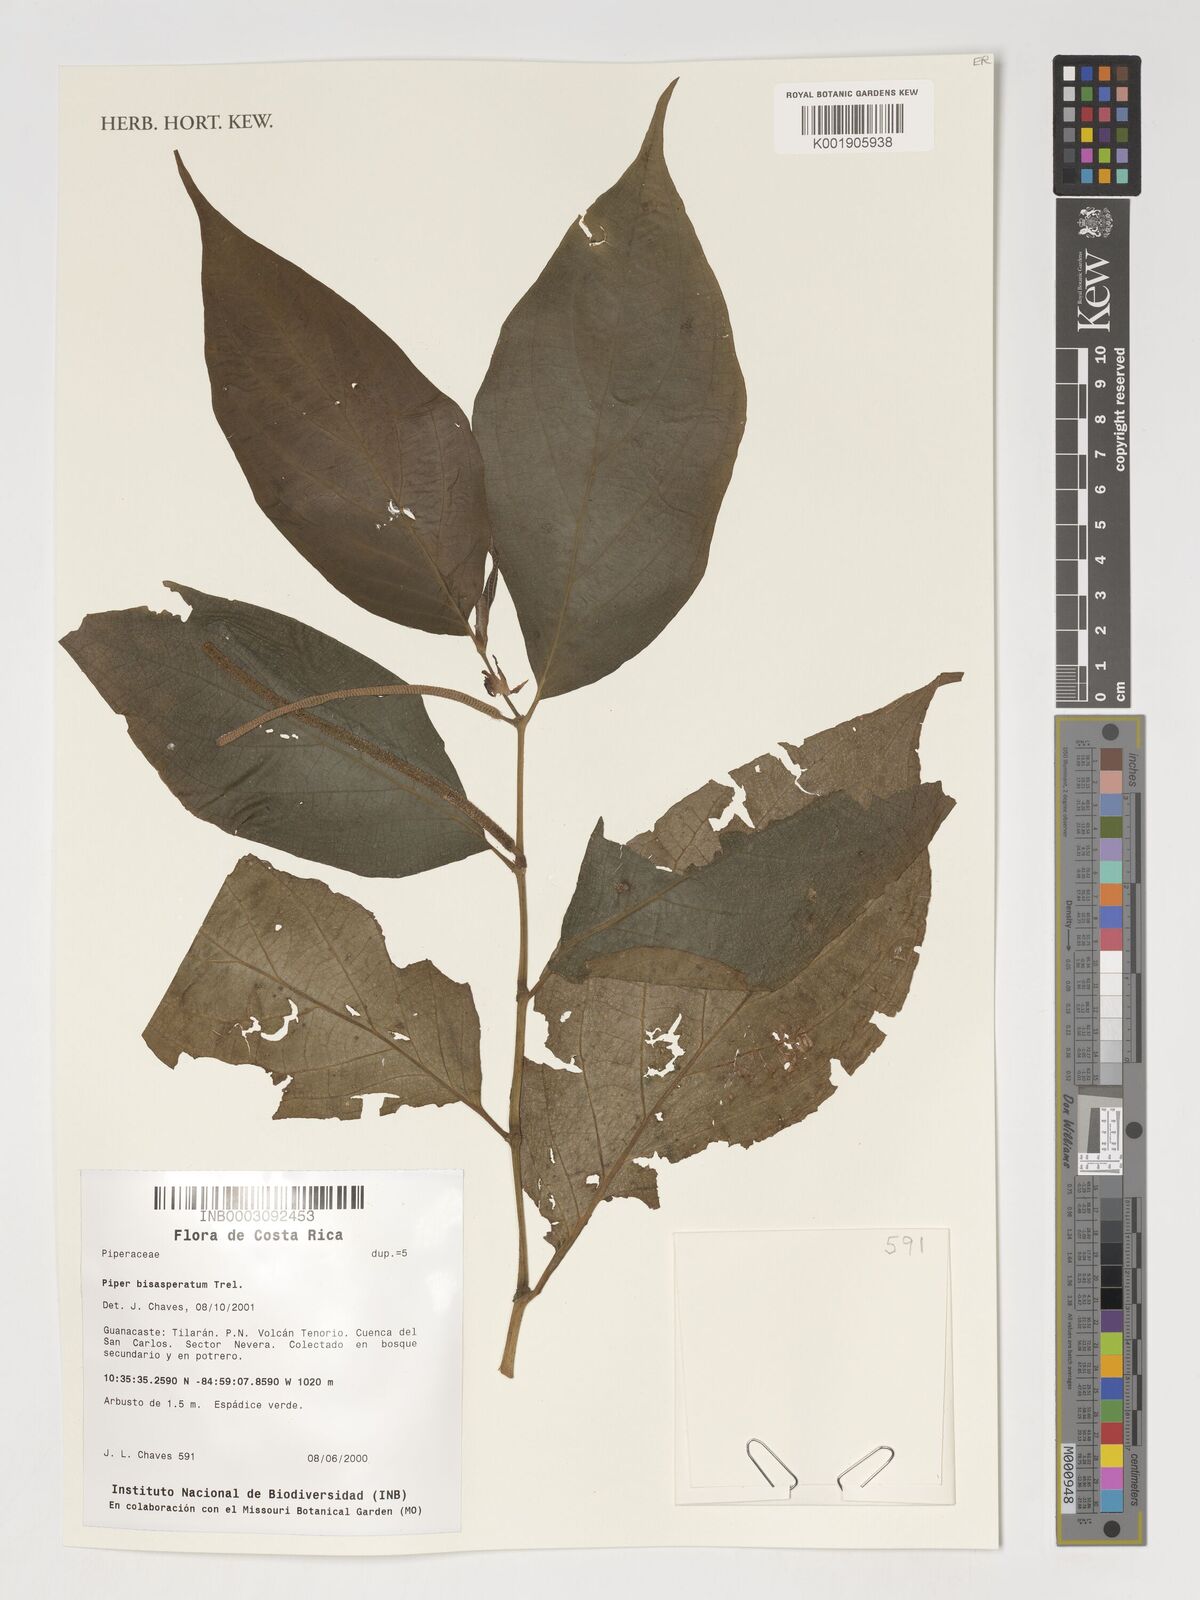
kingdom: Plantae
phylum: Tracheophyta
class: Magnoliopsida
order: Piperales
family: Piperaceae
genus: Piper
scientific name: Piper bisasperatum
